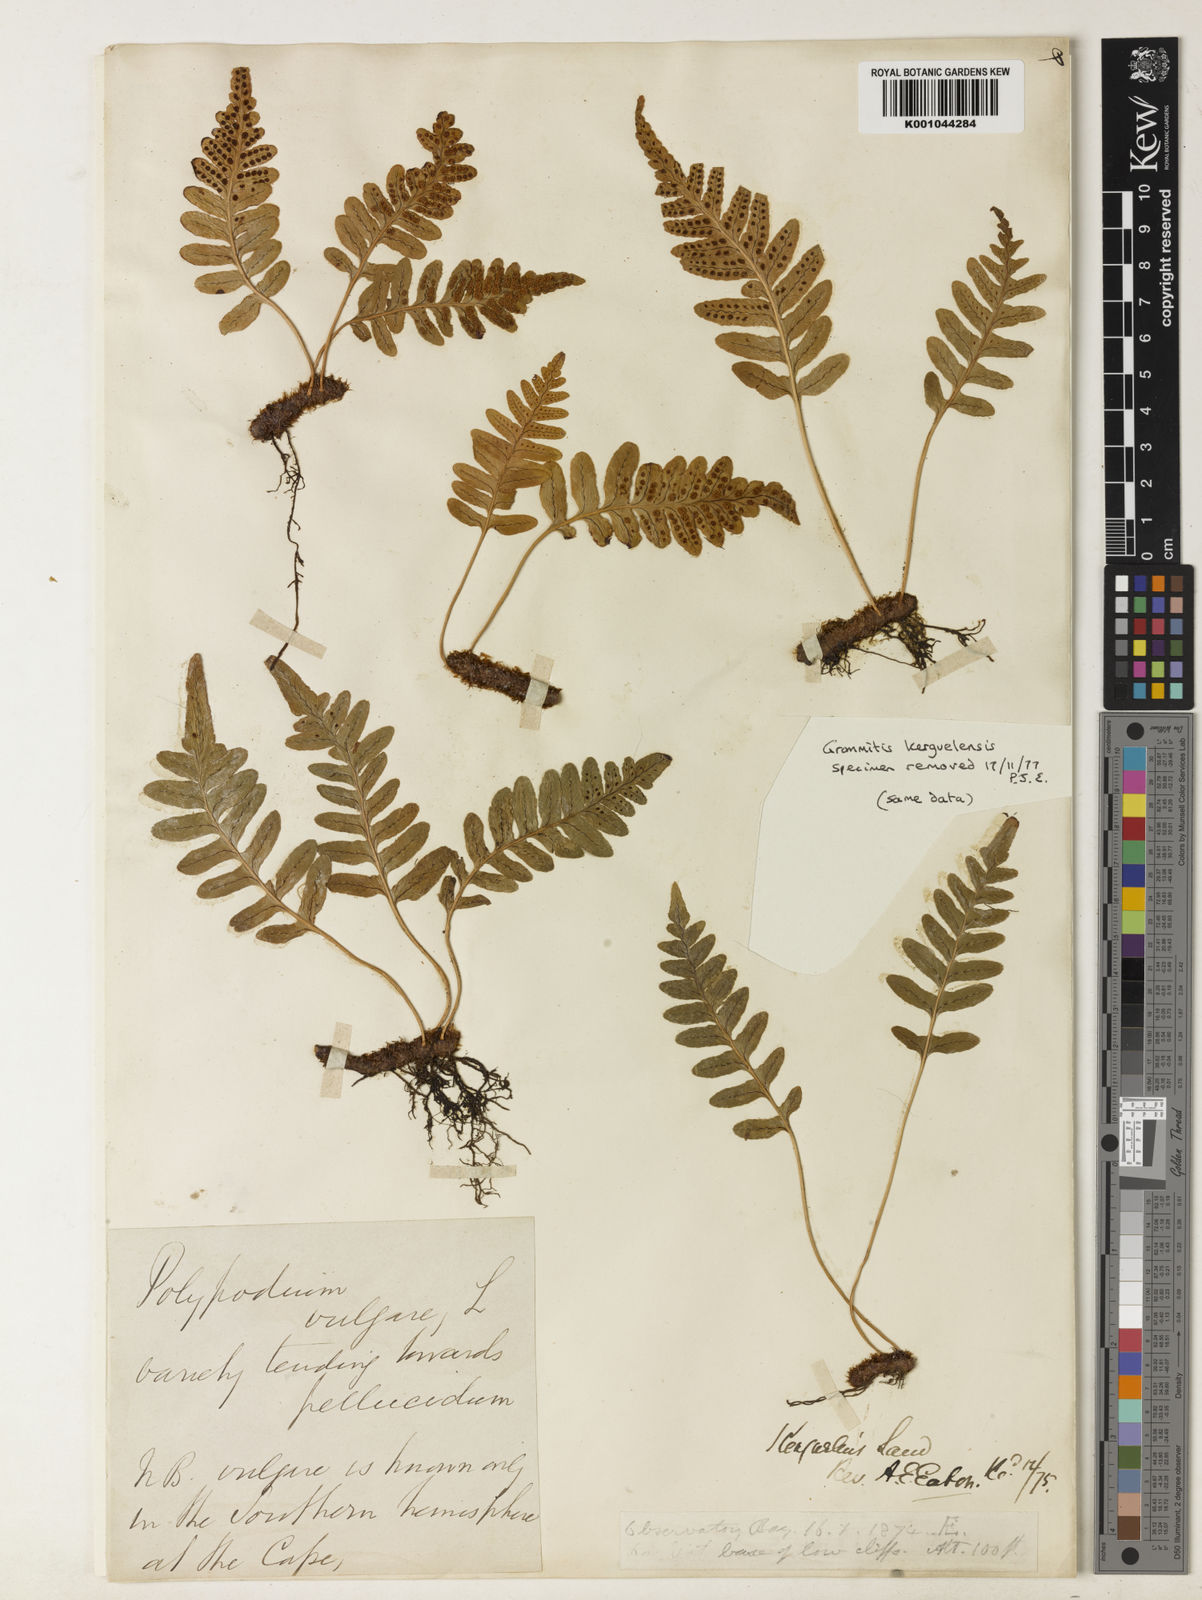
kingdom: Plantae
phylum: Tracheophyta
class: Polypodiopsida
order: Polypodiales
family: Polypodiaceae
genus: Polypodium
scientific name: Polypodium vulgare
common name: Common polypody
